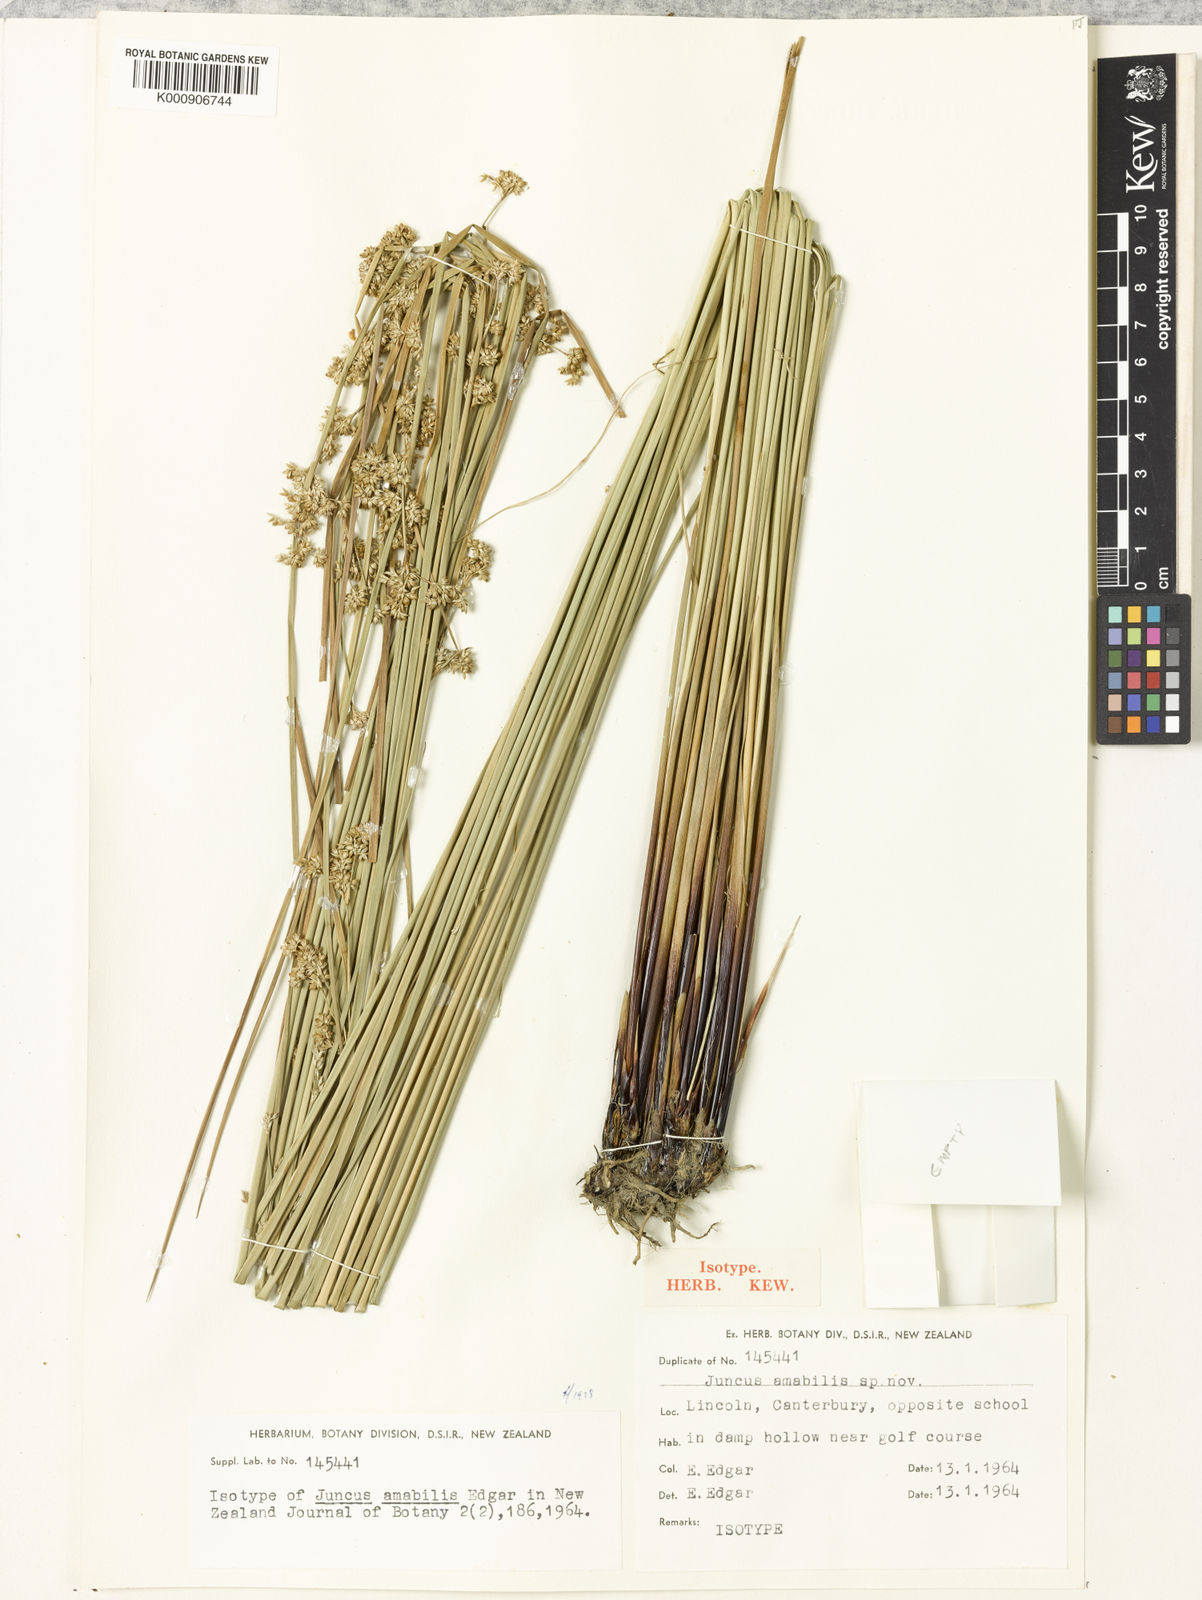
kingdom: Plantae
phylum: Tracheophyta
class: Liliopsida
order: Poales
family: Juncaceae
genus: Juncus
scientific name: Juncus amabilis
